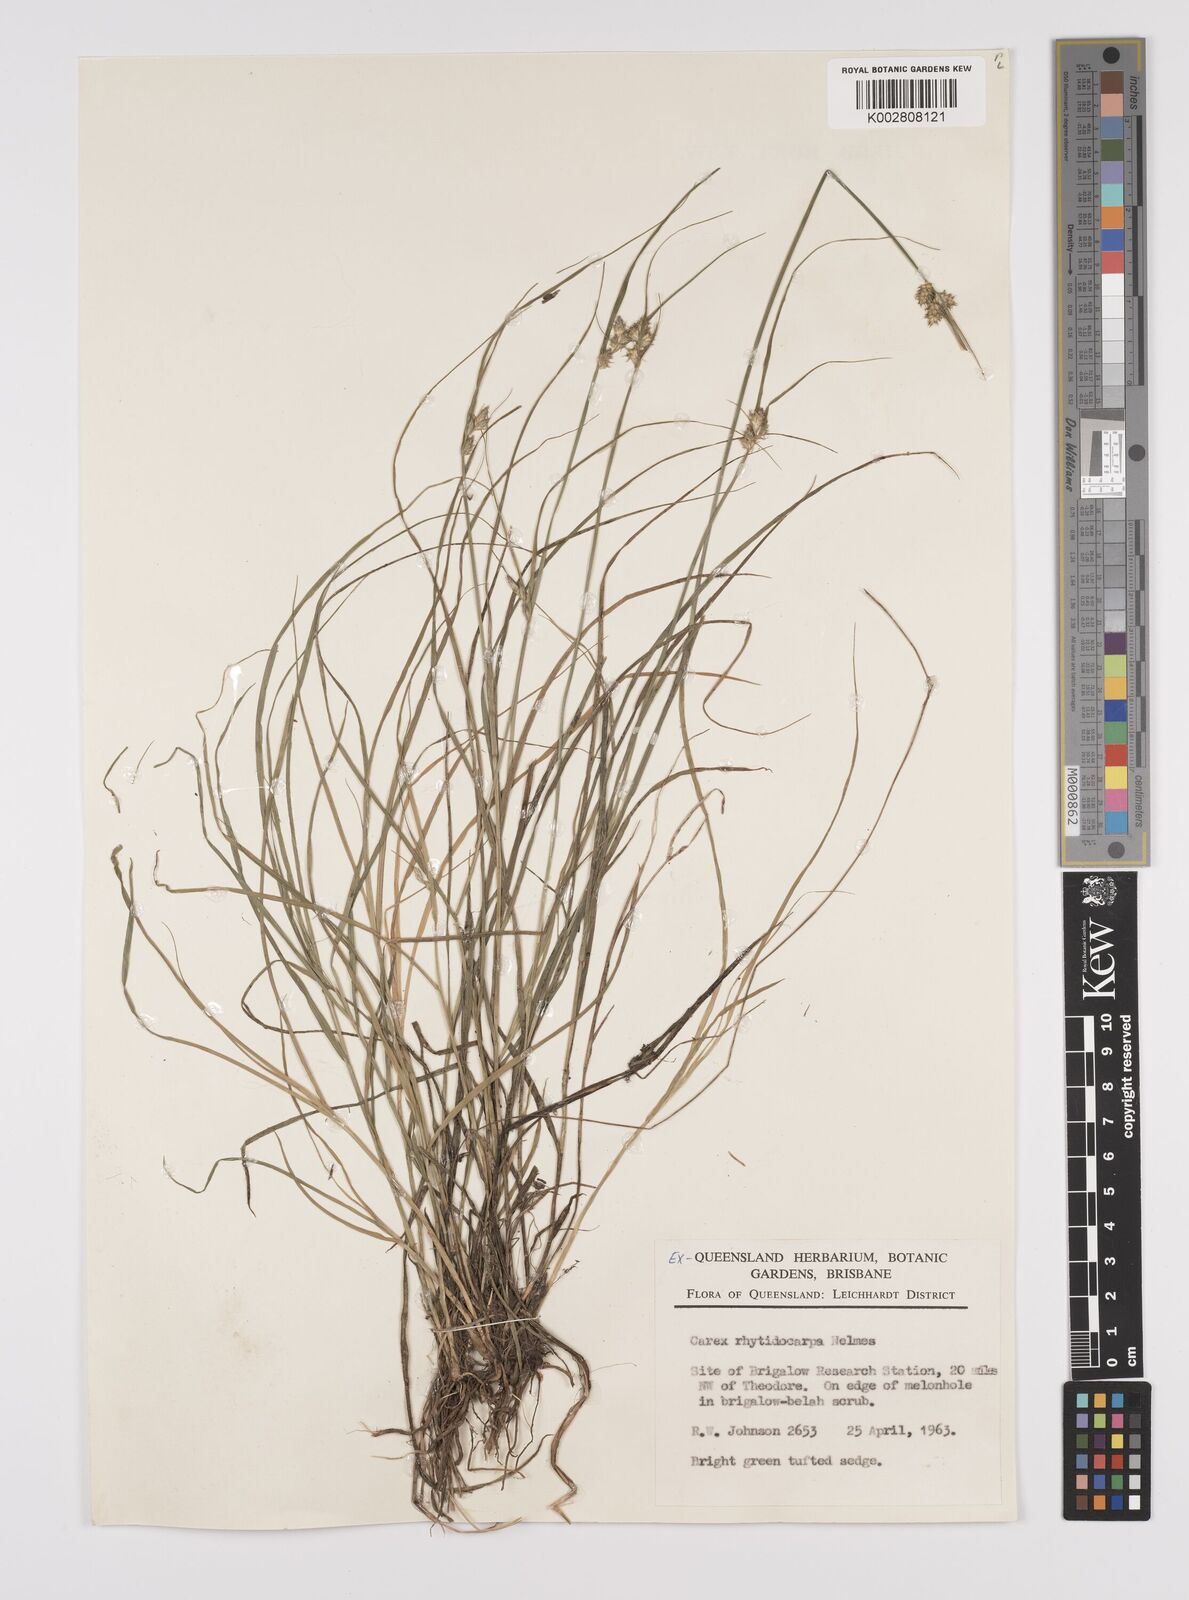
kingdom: Plantae
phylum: Tracheophyta
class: Liliopsida
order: Poales
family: Cyperaceae
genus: Carex
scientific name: Carex inversa
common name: Knob sedge
